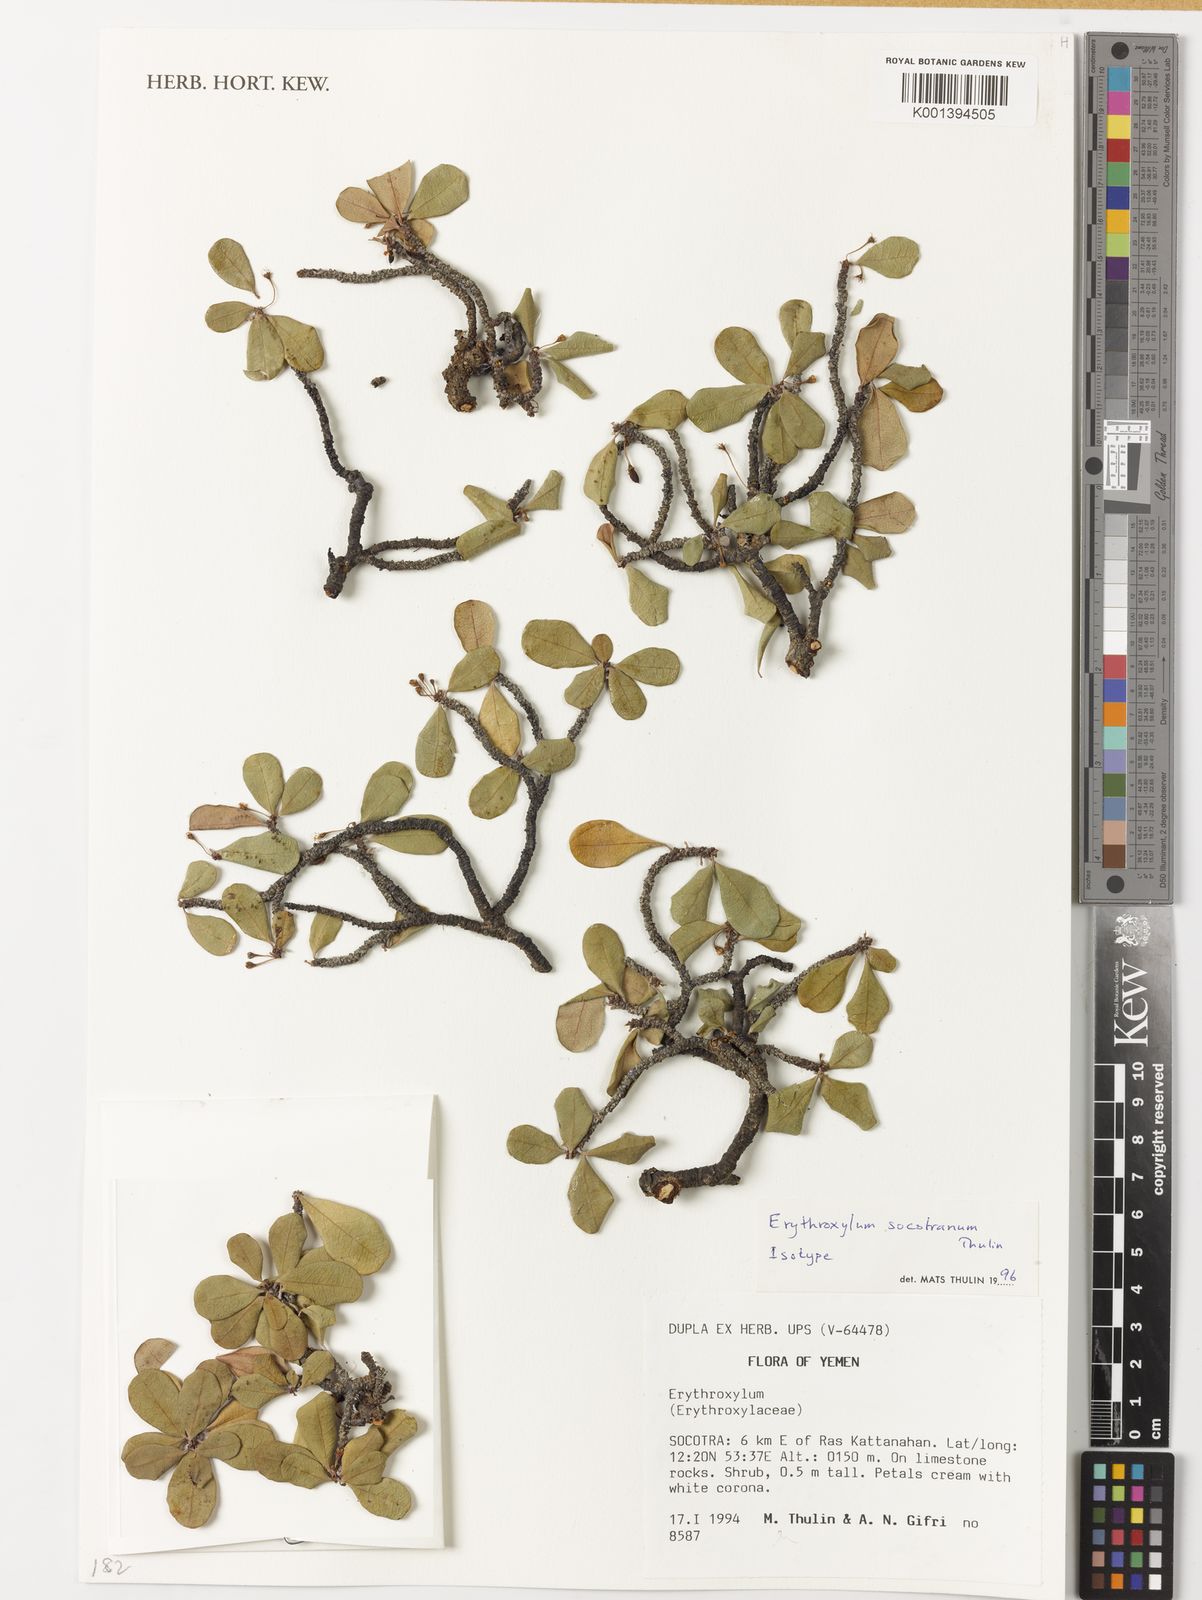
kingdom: Plantae
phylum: Tracheophyta
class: Magnoliopsida
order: Malpighiales
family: Erythroxylaceae
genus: Erythroxylum
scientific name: Erythroxylum socotranum
